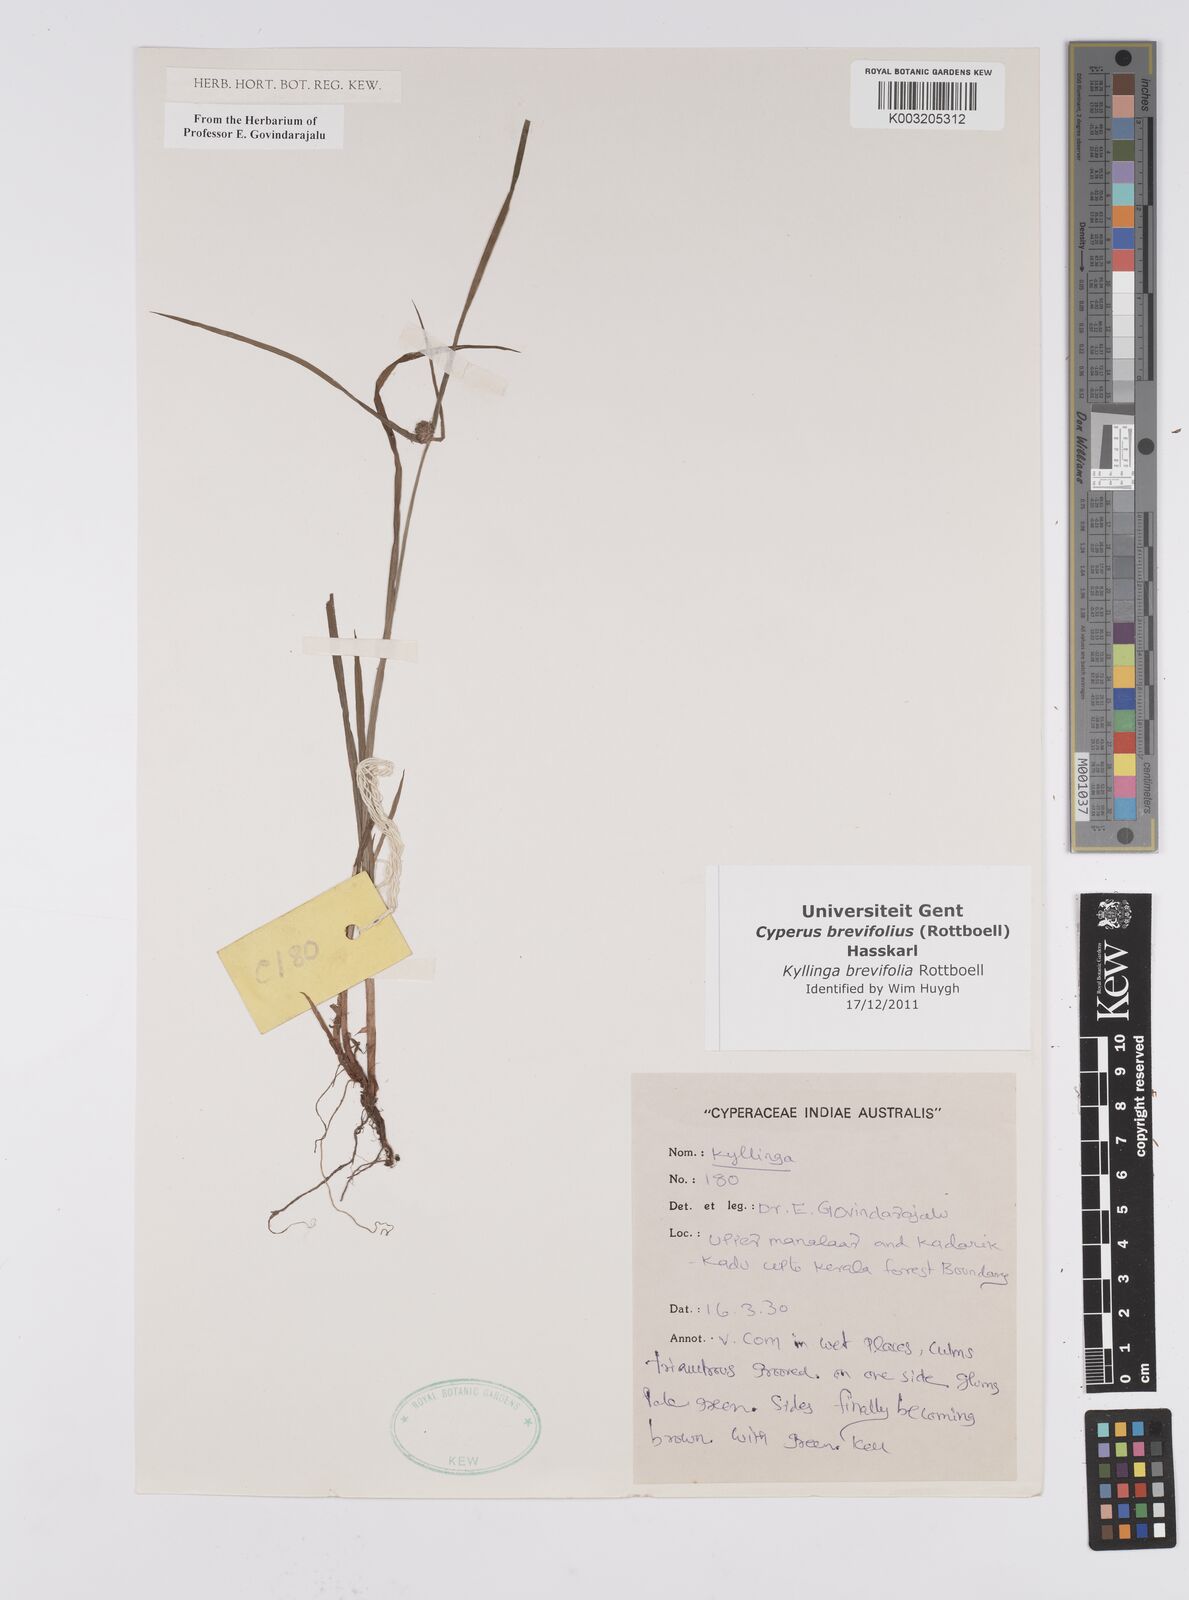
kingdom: Plantae
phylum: Tracheophyta
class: Liliopsida
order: Poales
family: Cyperaceae
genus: Cyperus
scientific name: Cyperus brevifolius
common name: Globe kyllinga
